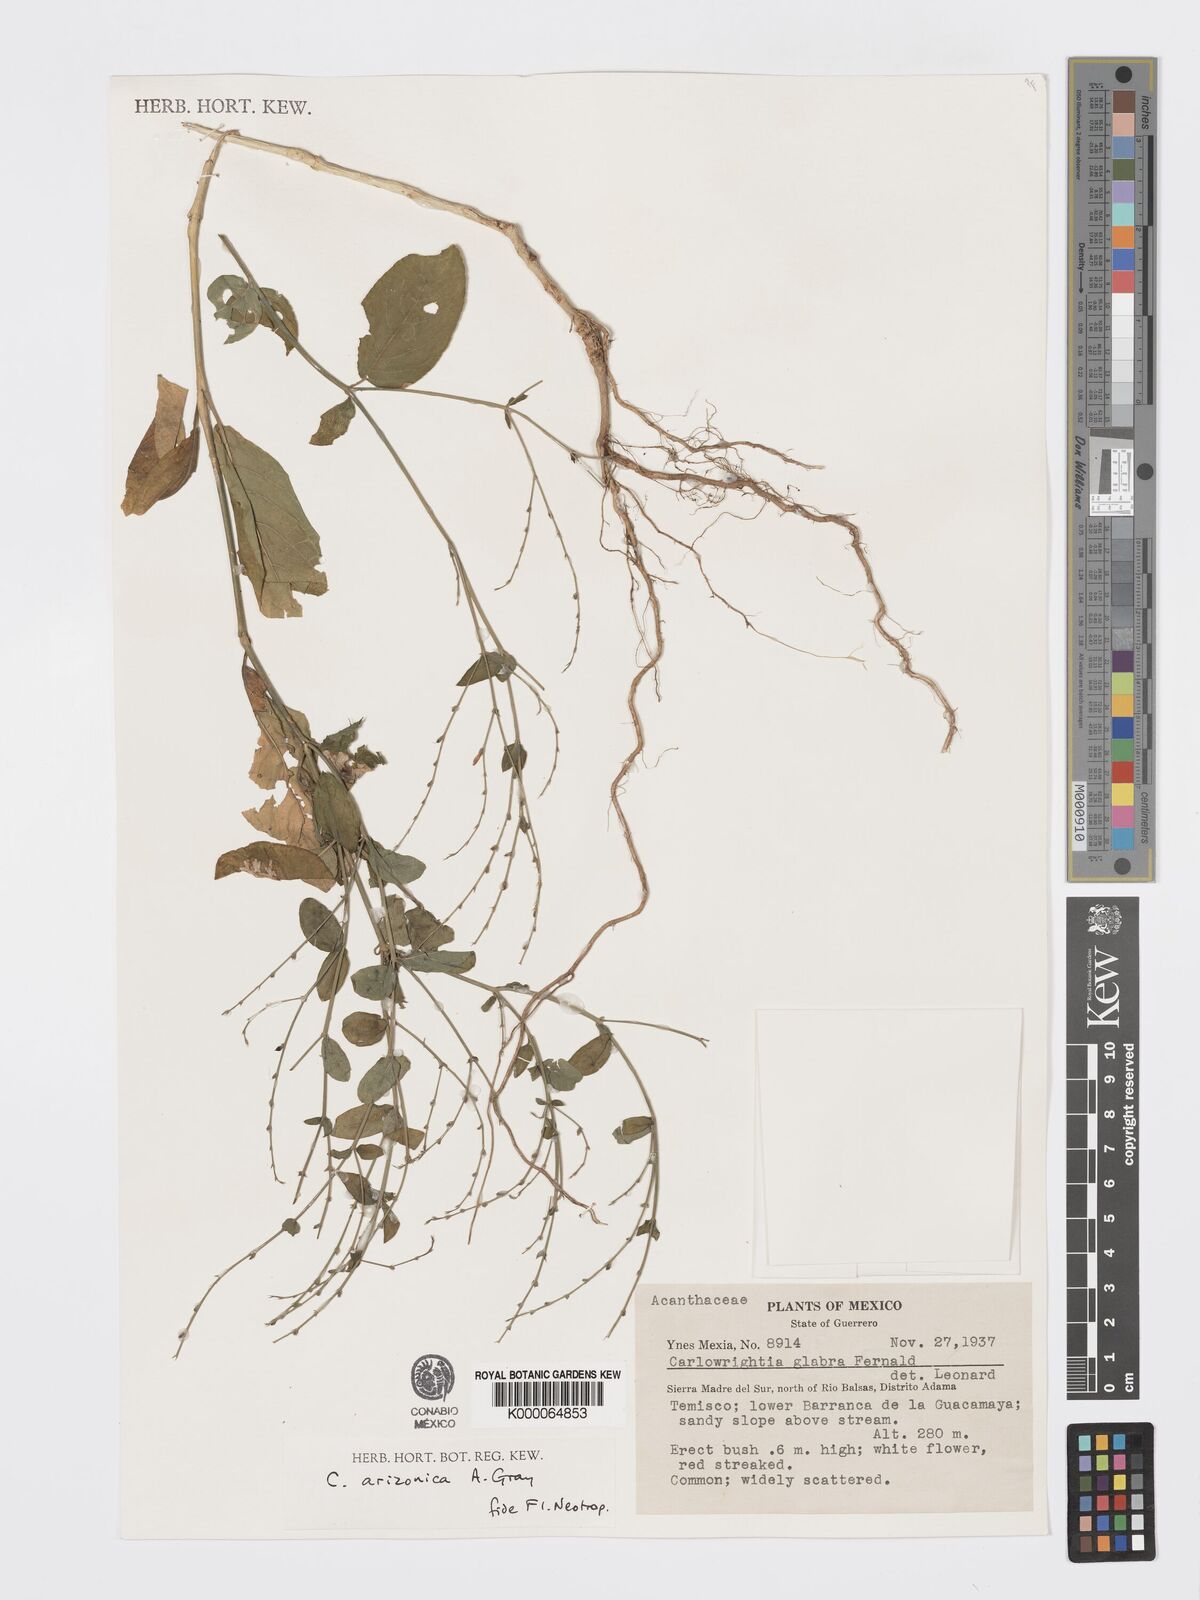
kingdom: Plantae
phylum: Tracheophyta
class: Magnoliopsida
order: Lamiales
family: Acanthaceae
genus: Carlowrightia
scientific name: Carlowrightia arizonica
